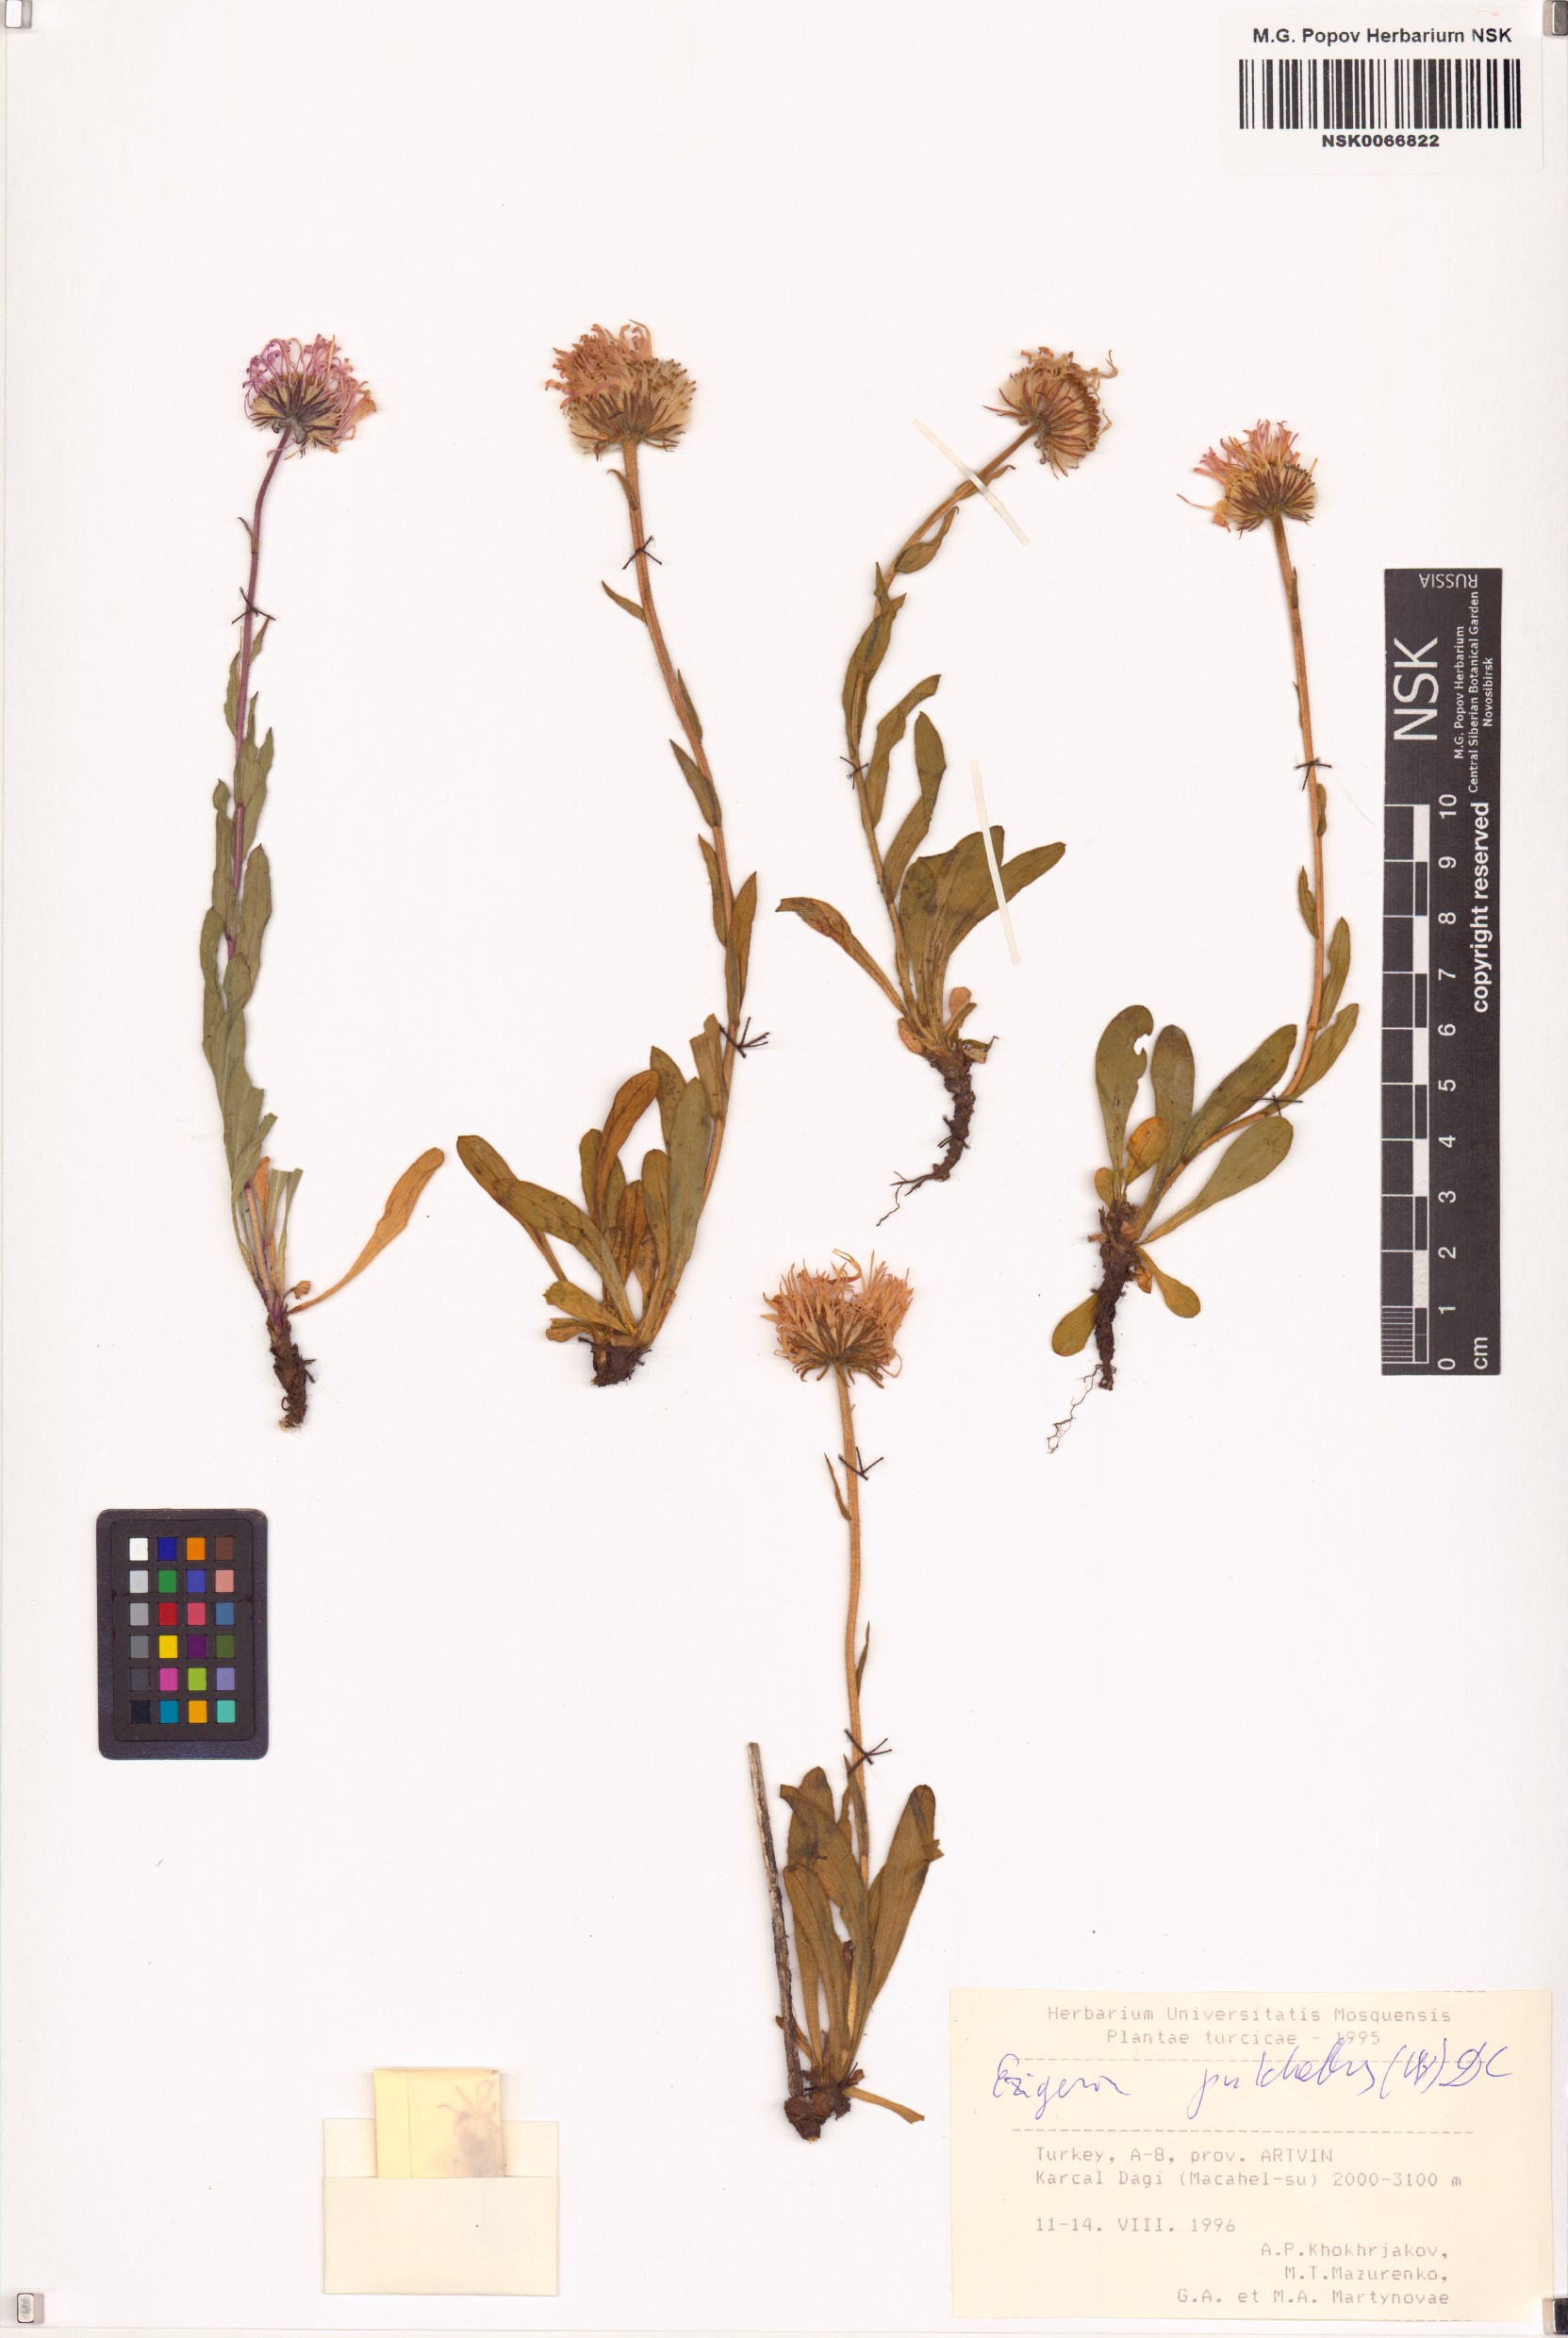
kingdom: Plantae
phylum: Tracheophyta
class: Magnoliopsida
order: Asterales
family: Asteraceae
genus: Erigeron
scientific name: Erigeron caucasicus
